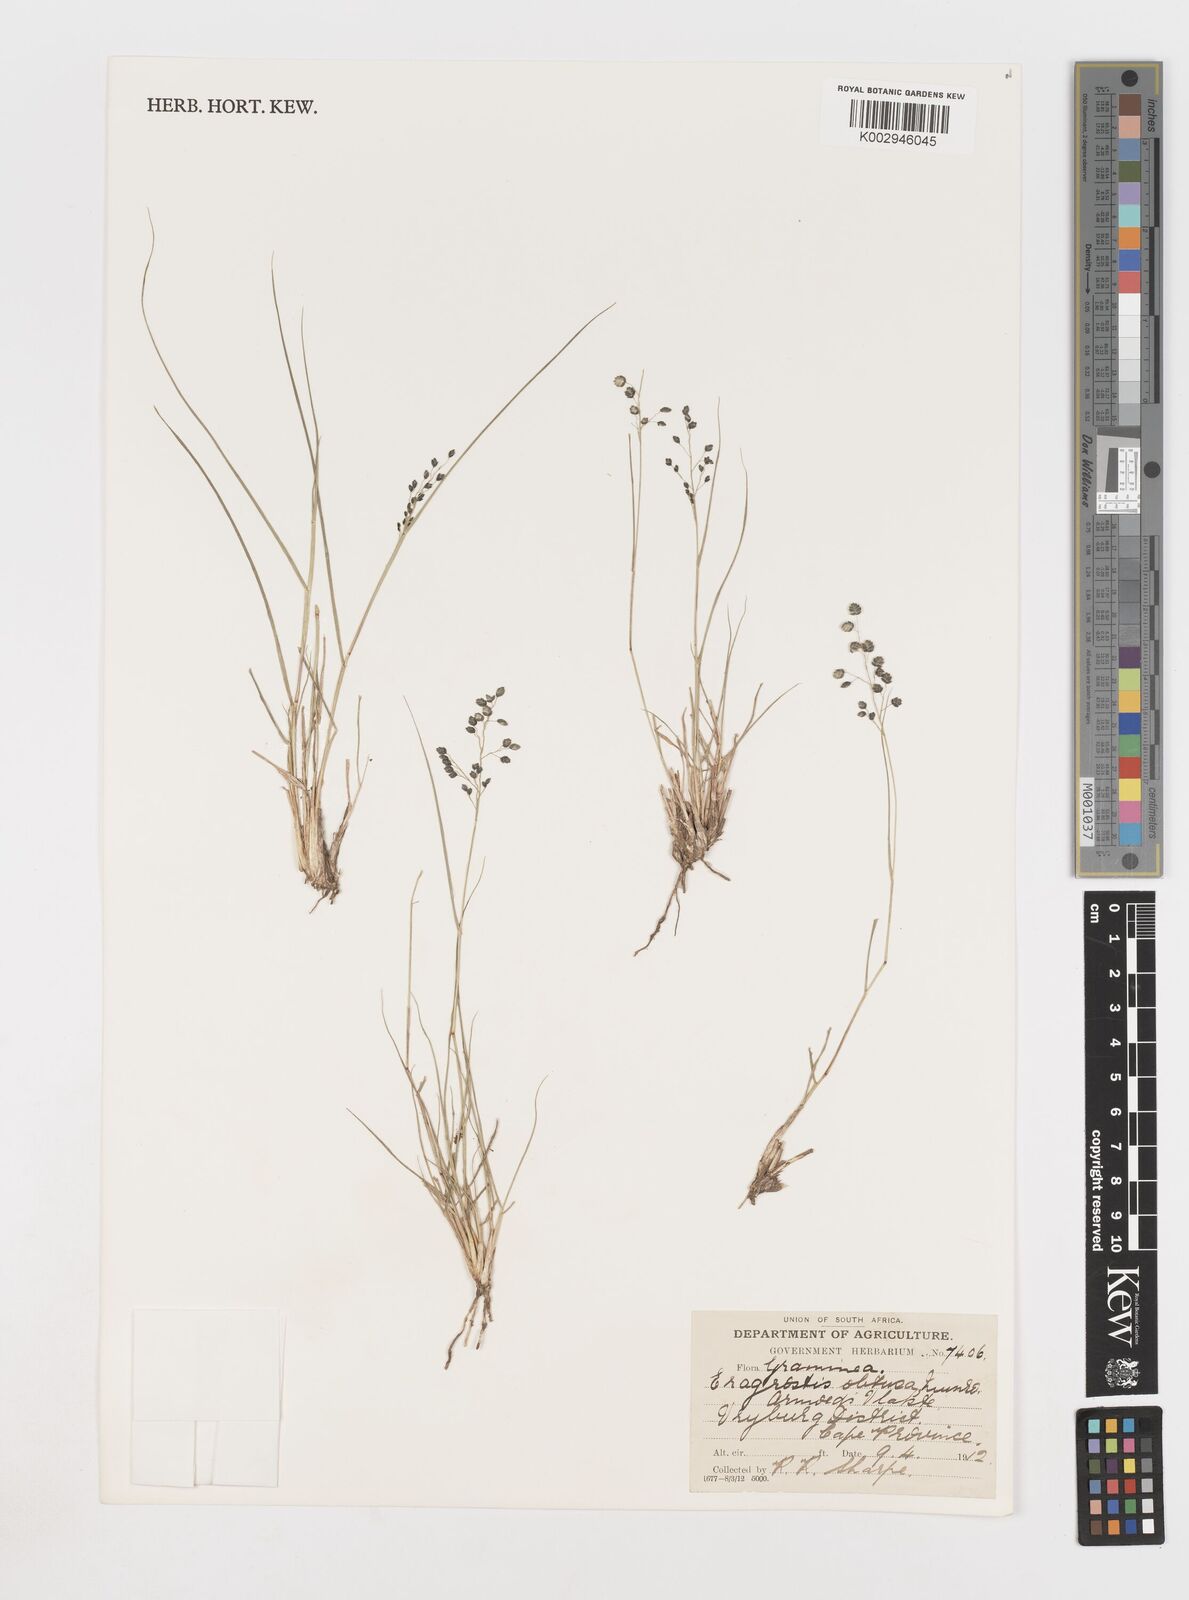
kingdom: Plantae
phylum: Tracheophyta
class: Liliopsida
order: Poales
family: Poaceae
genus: Eragrostis
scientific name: Eragrostis obtusa
